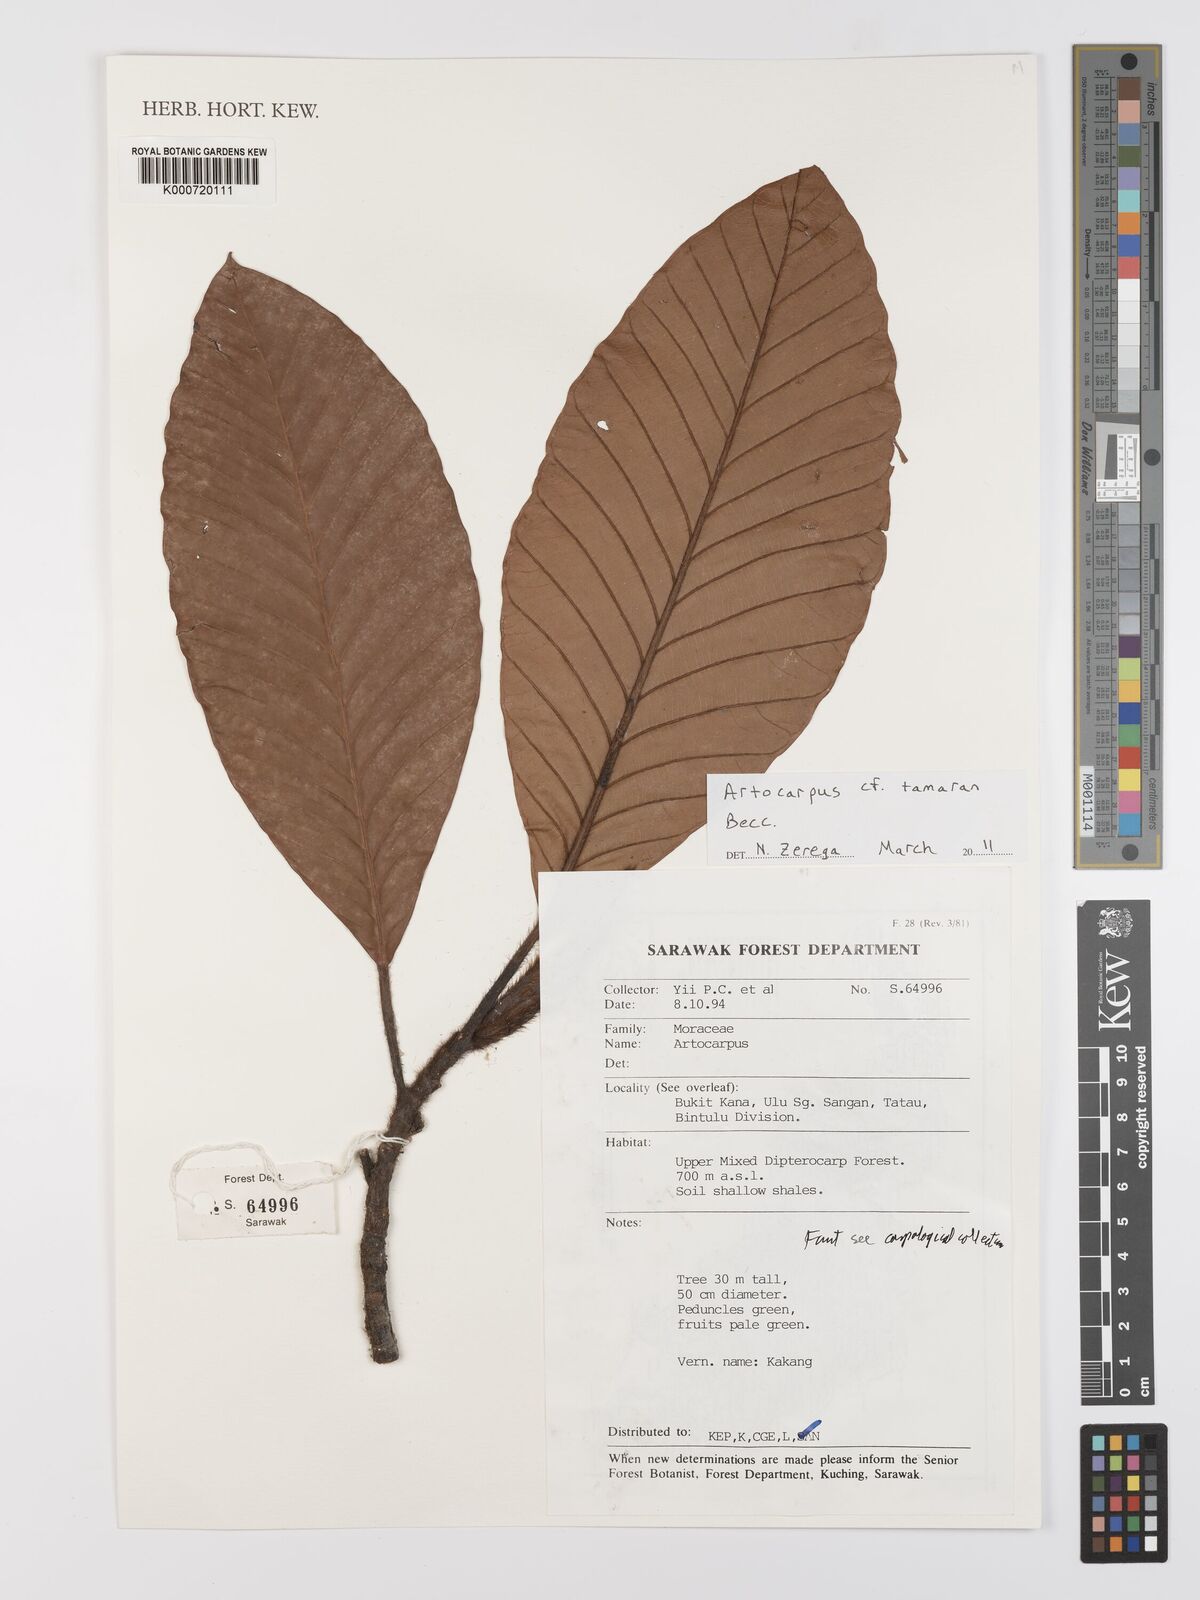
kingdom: Plantae
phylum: Tracheophyta
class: Magnoliopsida
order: Rosales
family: Moraceae
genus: Artocarpus
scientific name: Artocarpus tamaran
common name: Elephant jack
